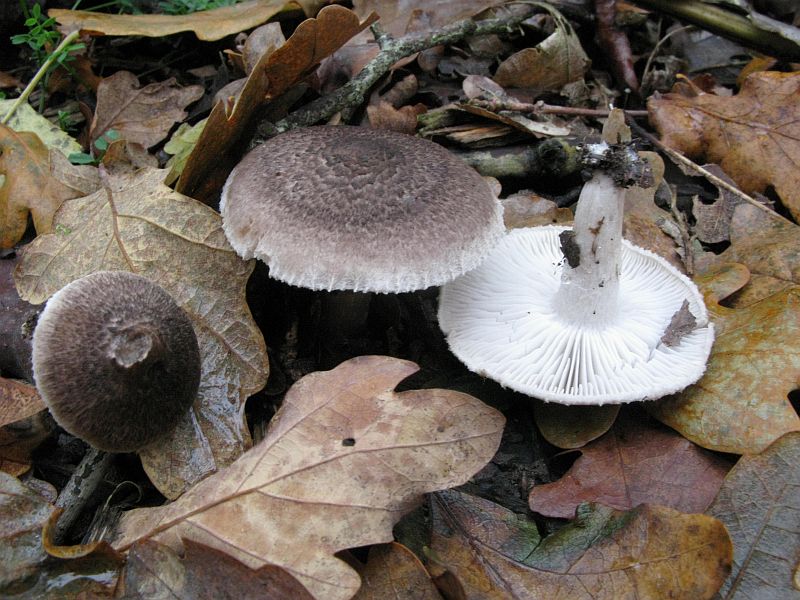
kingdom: Fungi
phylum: Basidiomycota
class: Agaricomycetes
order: Agaricales
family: Tricholomataceae
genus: Tricholoma
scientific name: Tricholoma scalpturatum
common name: gulplettet ridderhat
